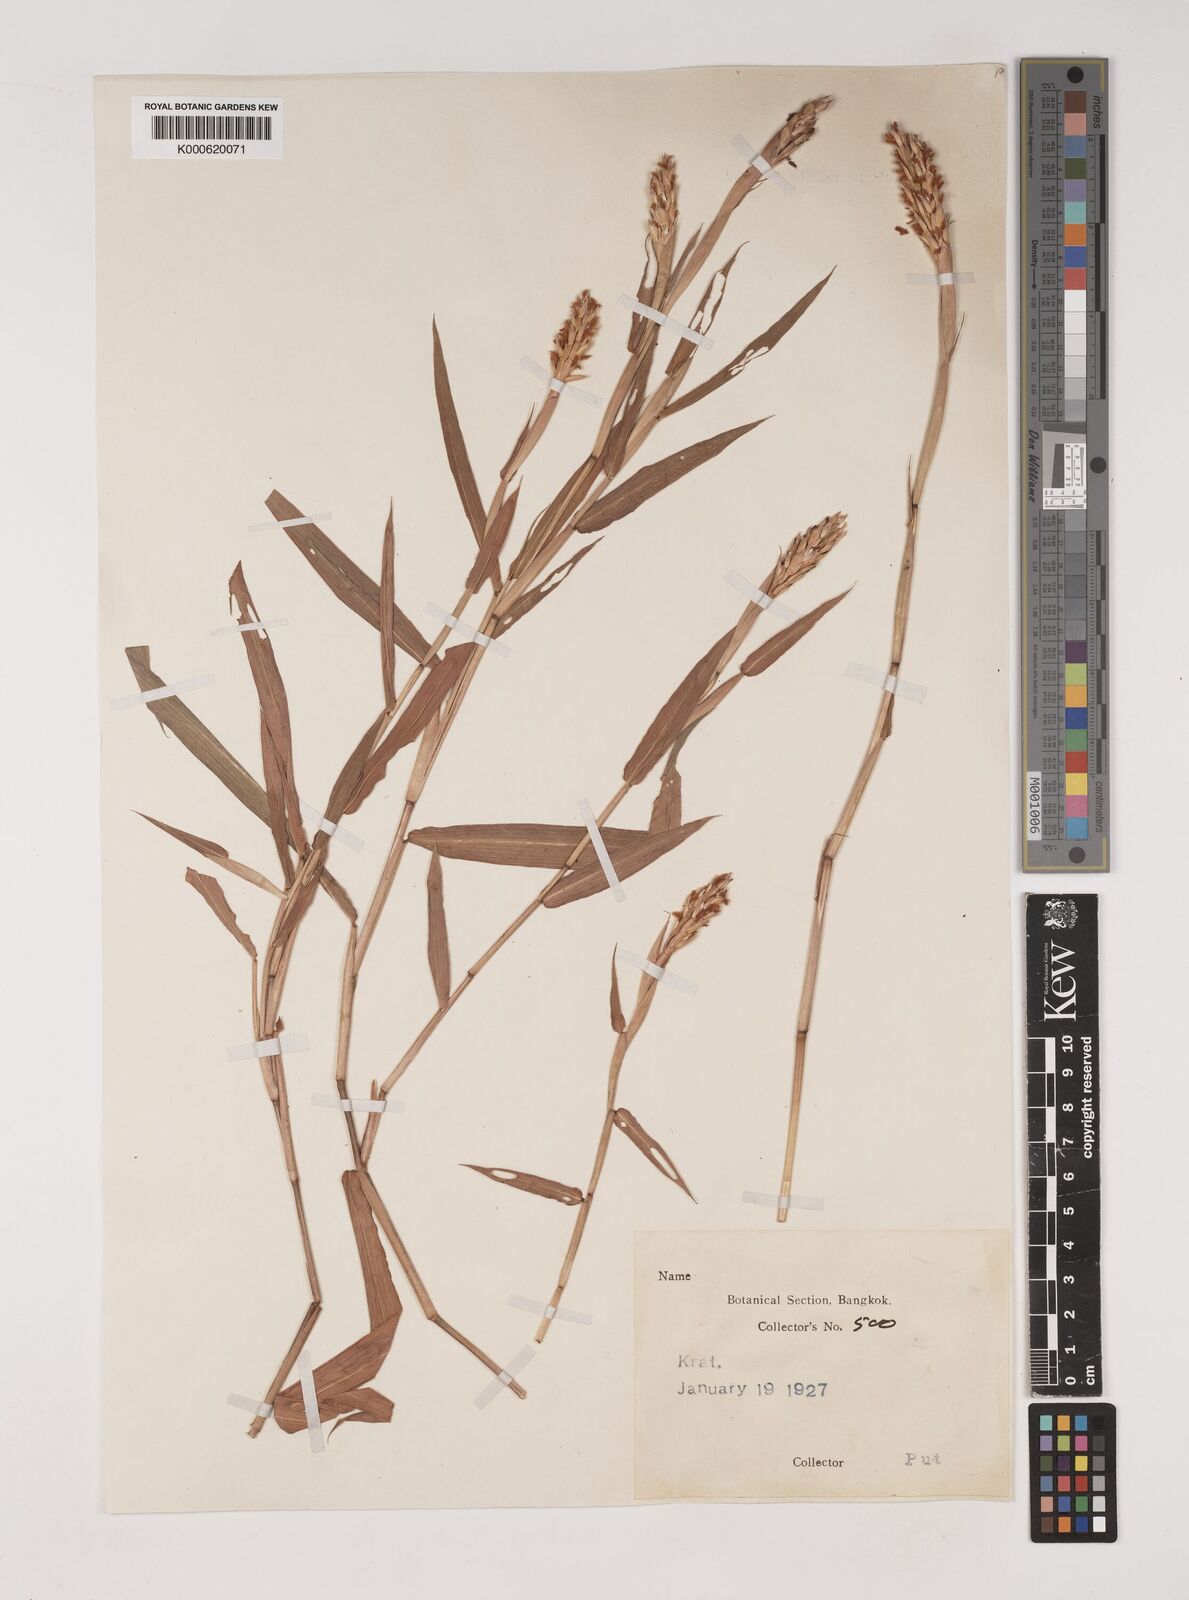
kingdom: Plantae
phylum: Tracheophyta
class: Liliopsida
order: Poales
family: Poaceae
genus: Ischaemum
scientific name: Ischaemum muticum
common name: Drought grass
